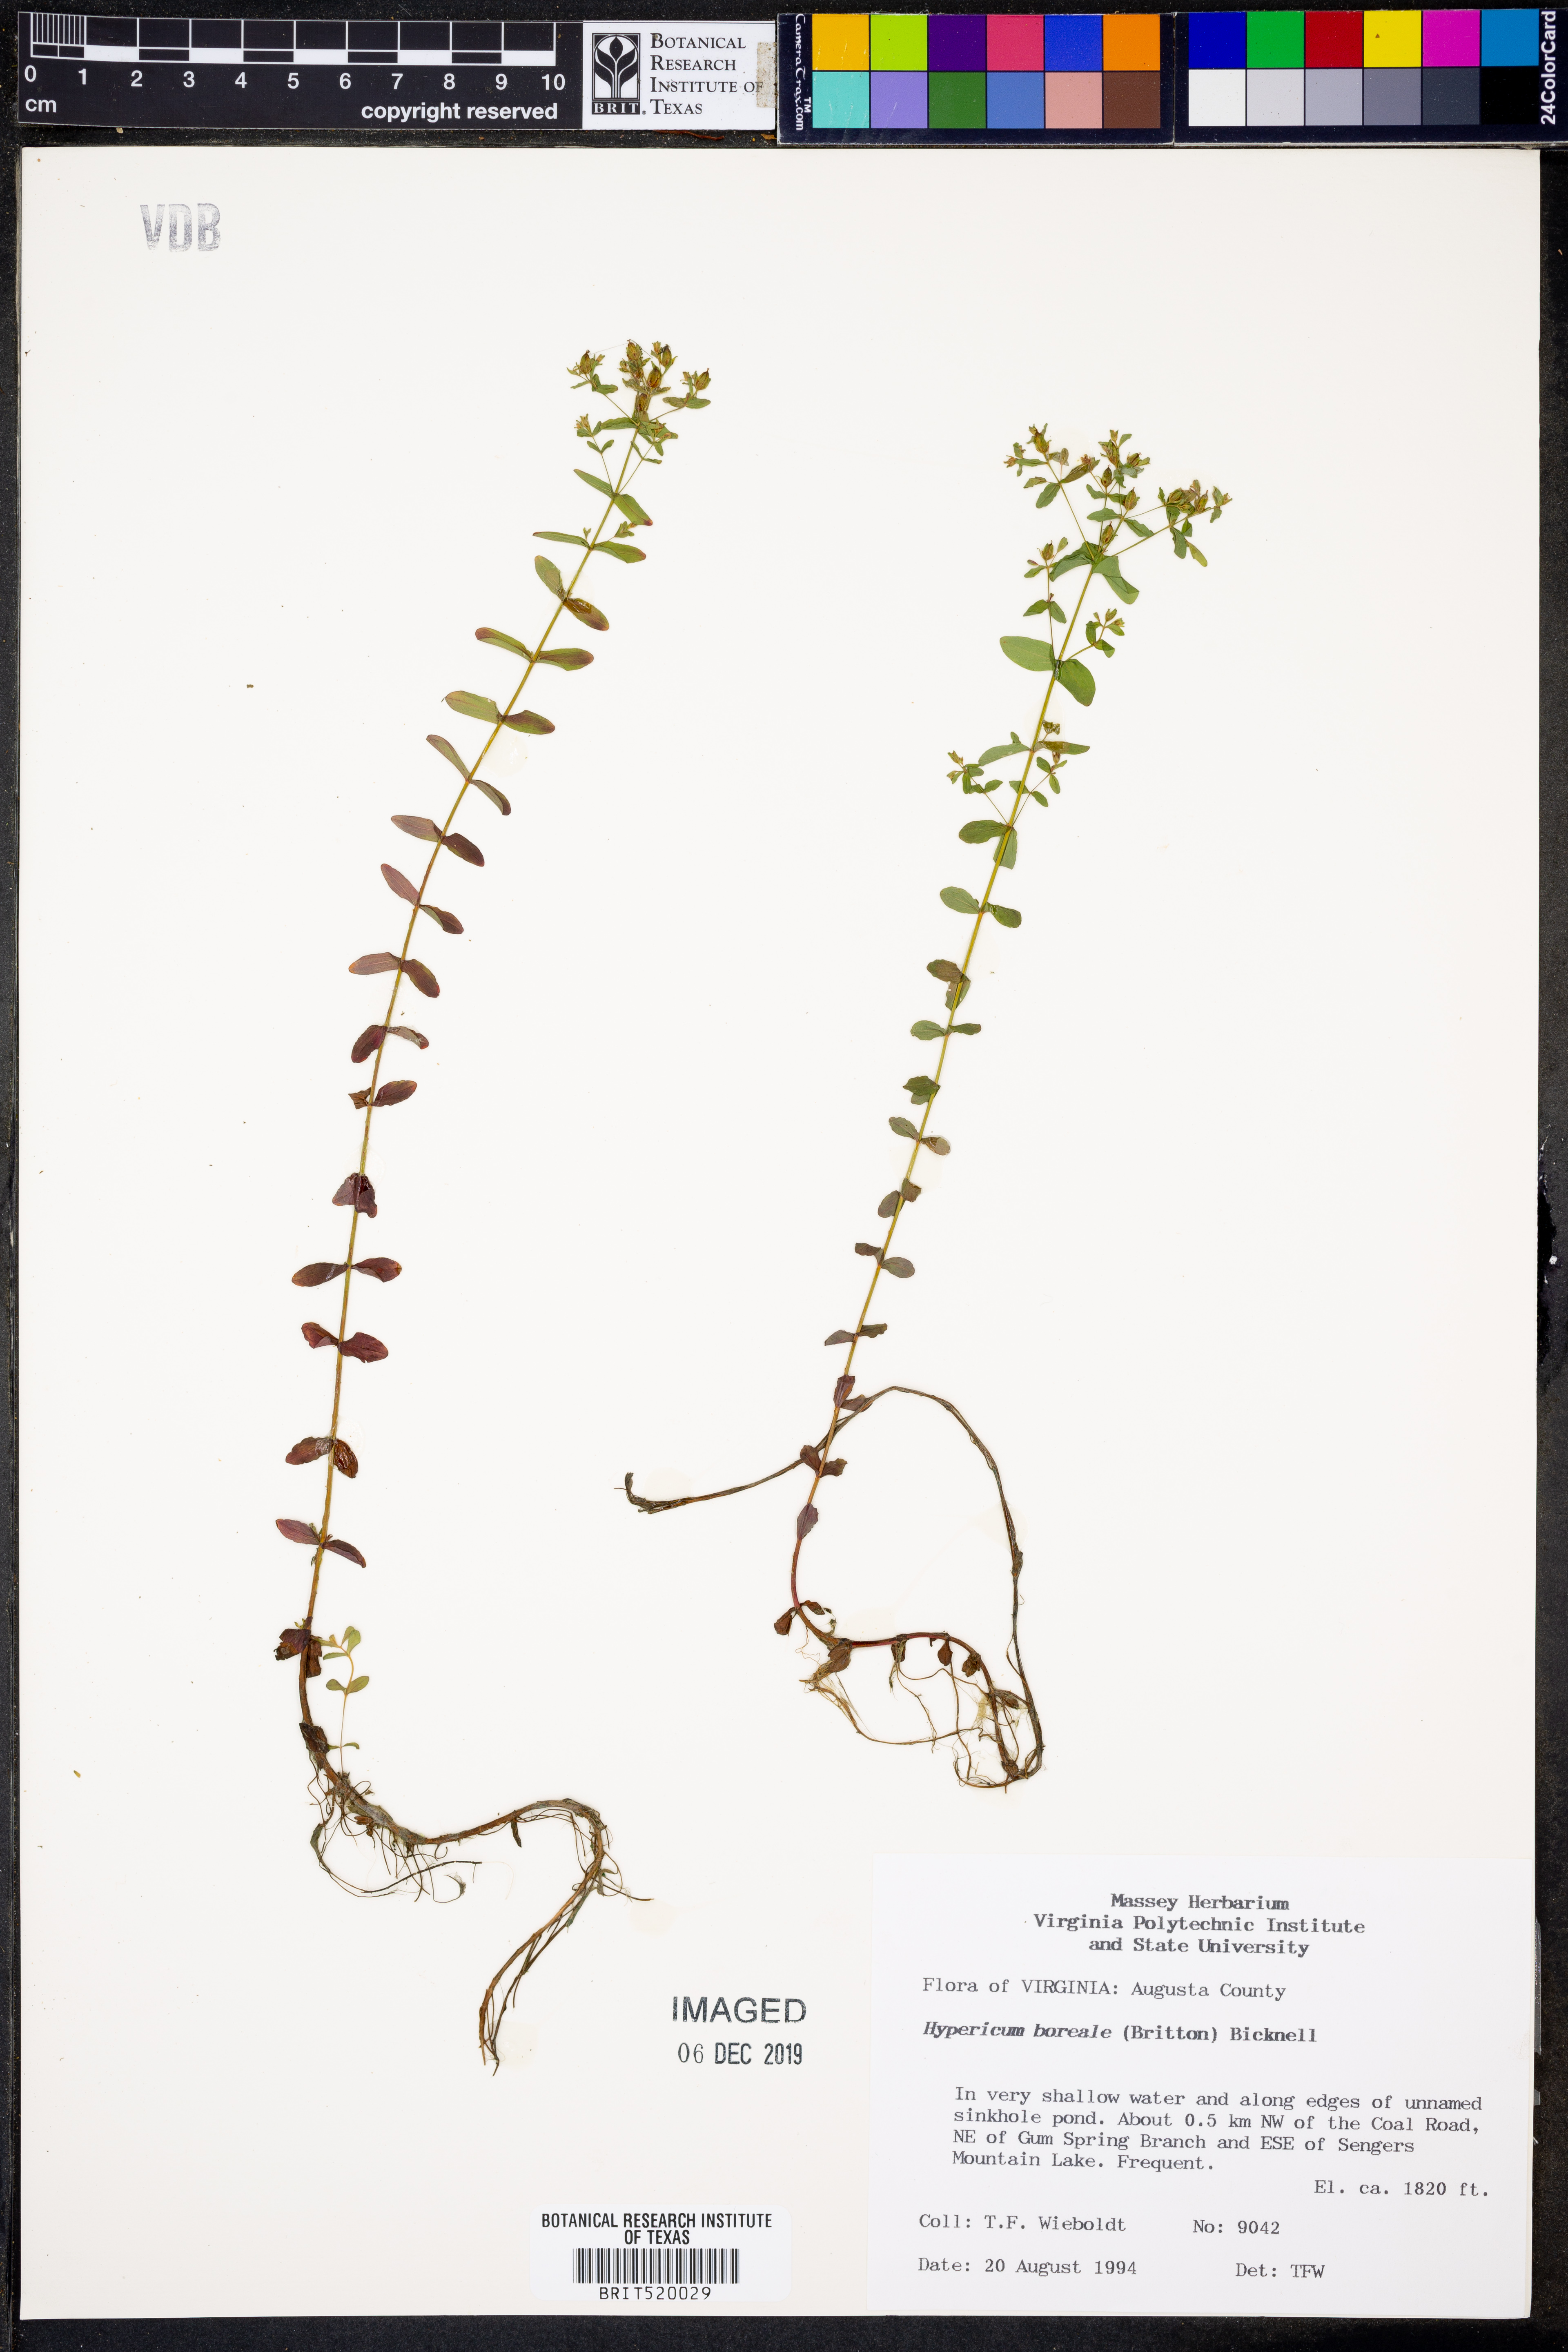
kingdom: Plantae
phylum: Tracheophyta
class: Magnoliopsida
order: Malpighiales
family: Hypericaceae
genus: Hypericum
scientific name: Hypericum boreale
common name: Northern bog st. john's-wort
